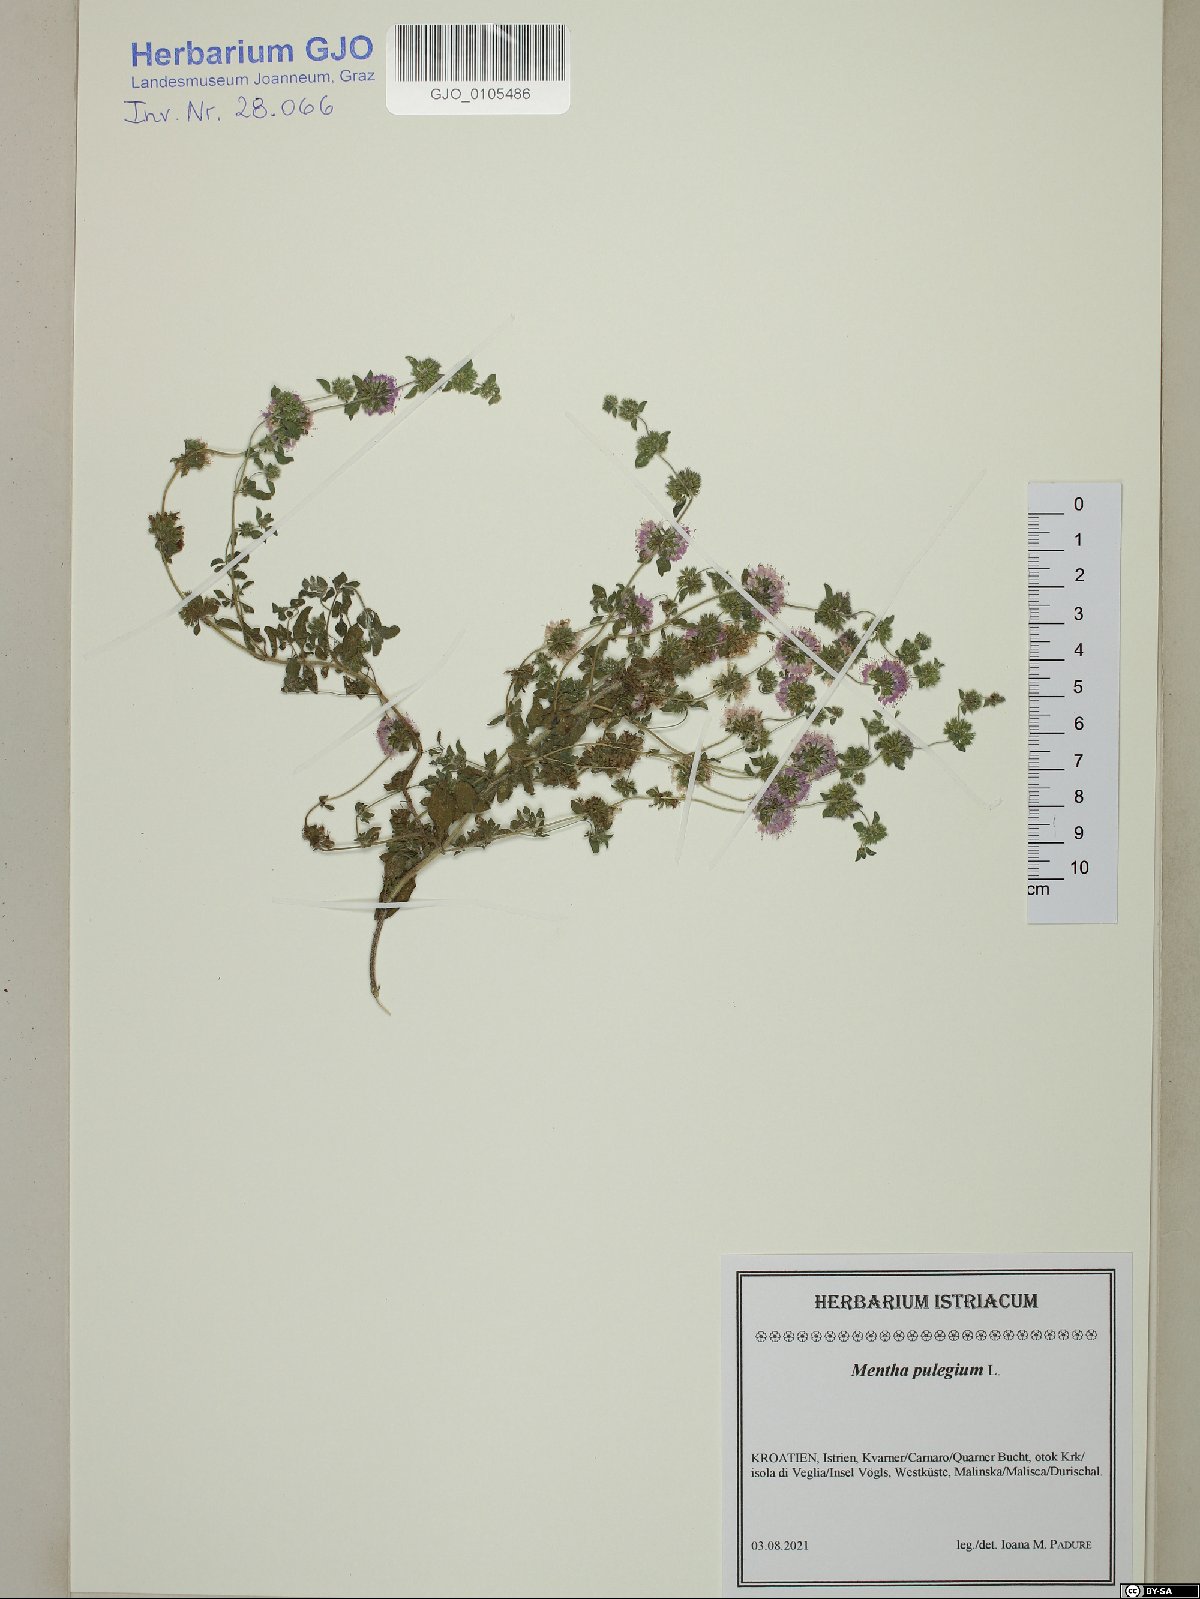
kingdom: Plantae
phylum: Tracheophyta
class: Magnoliopsida
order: Lamiales
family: Lamiaceae
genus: Mentha
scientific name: Mentha pulegium
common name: Pennyroyal
